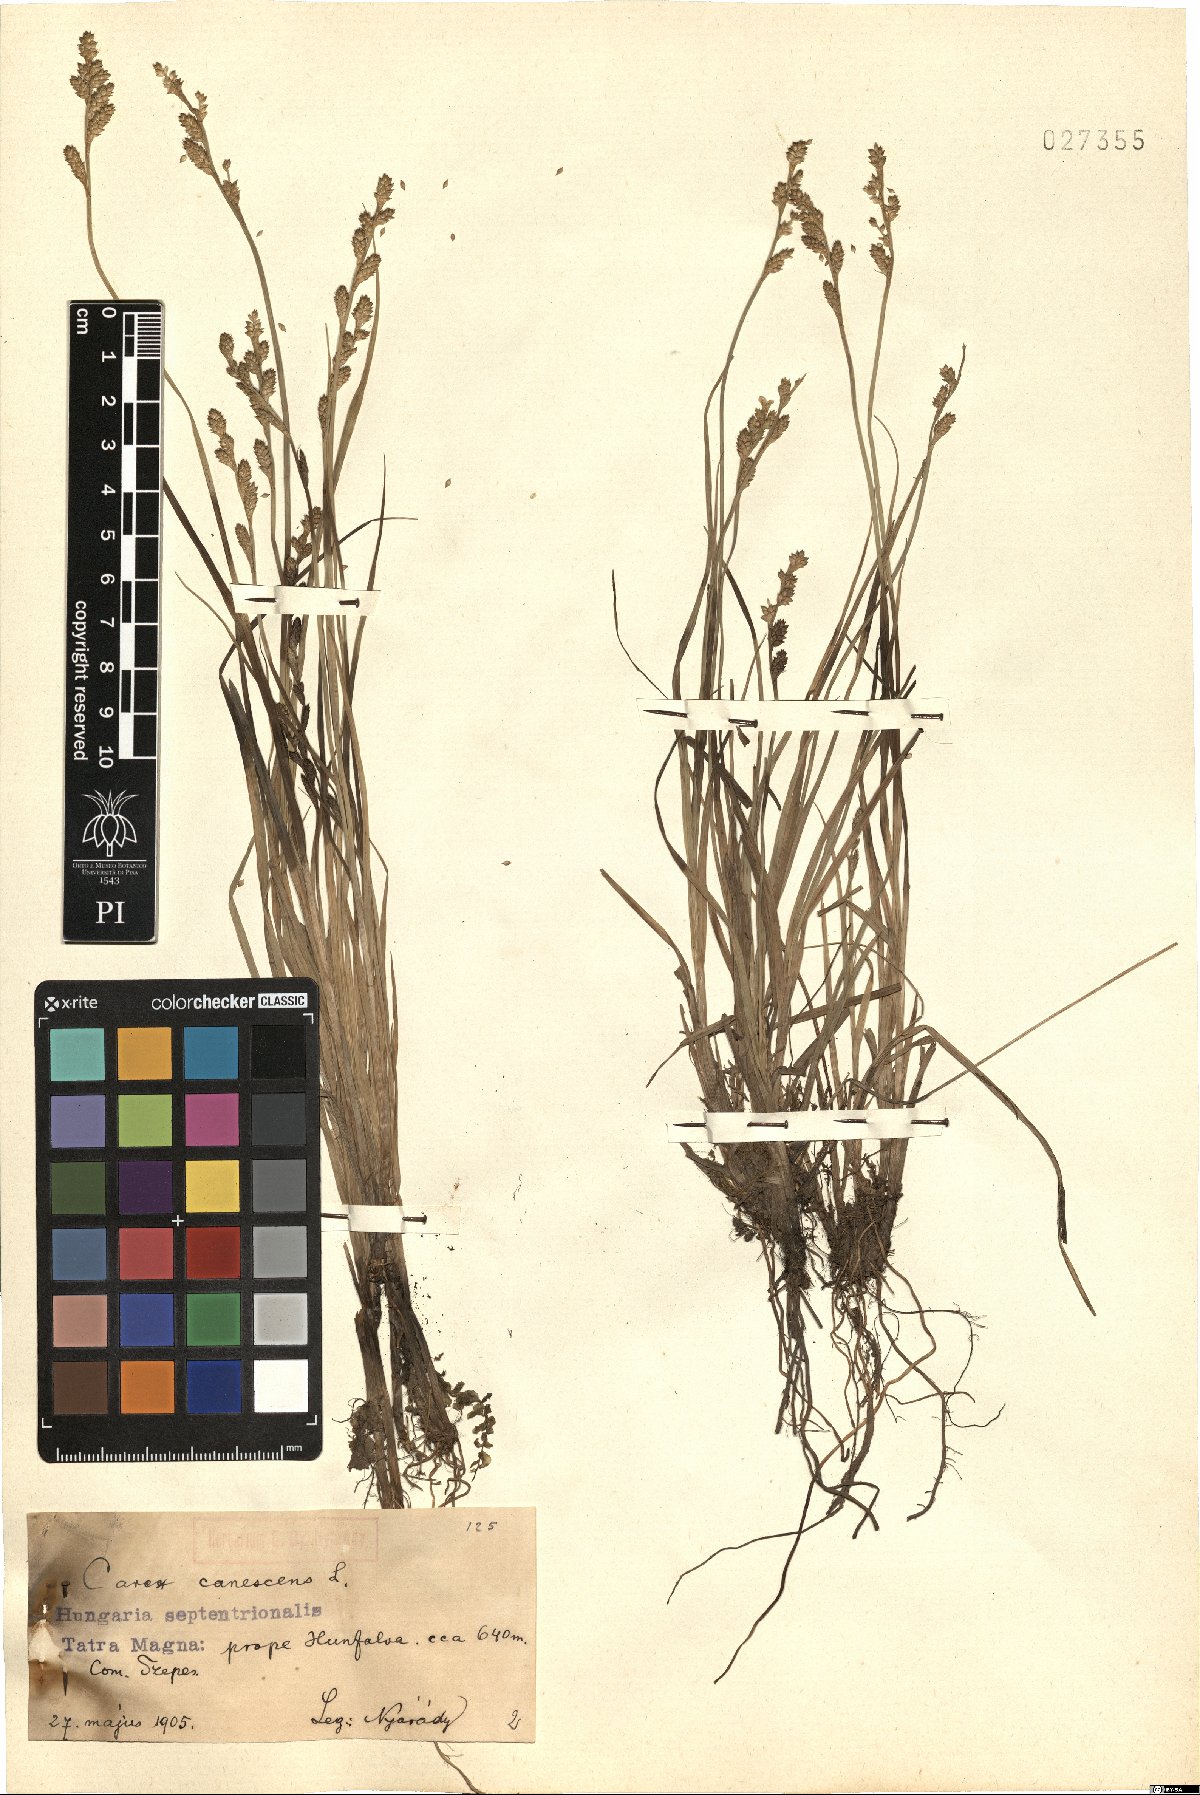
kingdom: Plantae
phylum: Tracheophyta
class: Liliopsida
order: Poales
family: Cyperaceae
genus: Carex
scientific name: Carex canescens
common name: White sedge
